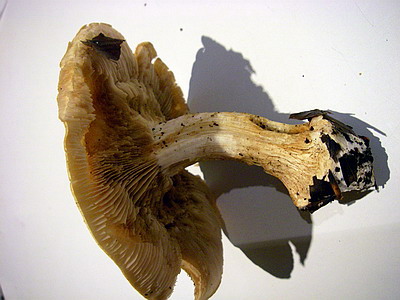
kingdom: Fungi
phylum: Basidiomycota
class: Agaricomycetes
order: Agaricales
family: Cortinariaceae
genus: Phlegmacium
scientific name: Phlegmacium xantho-ochraceum
